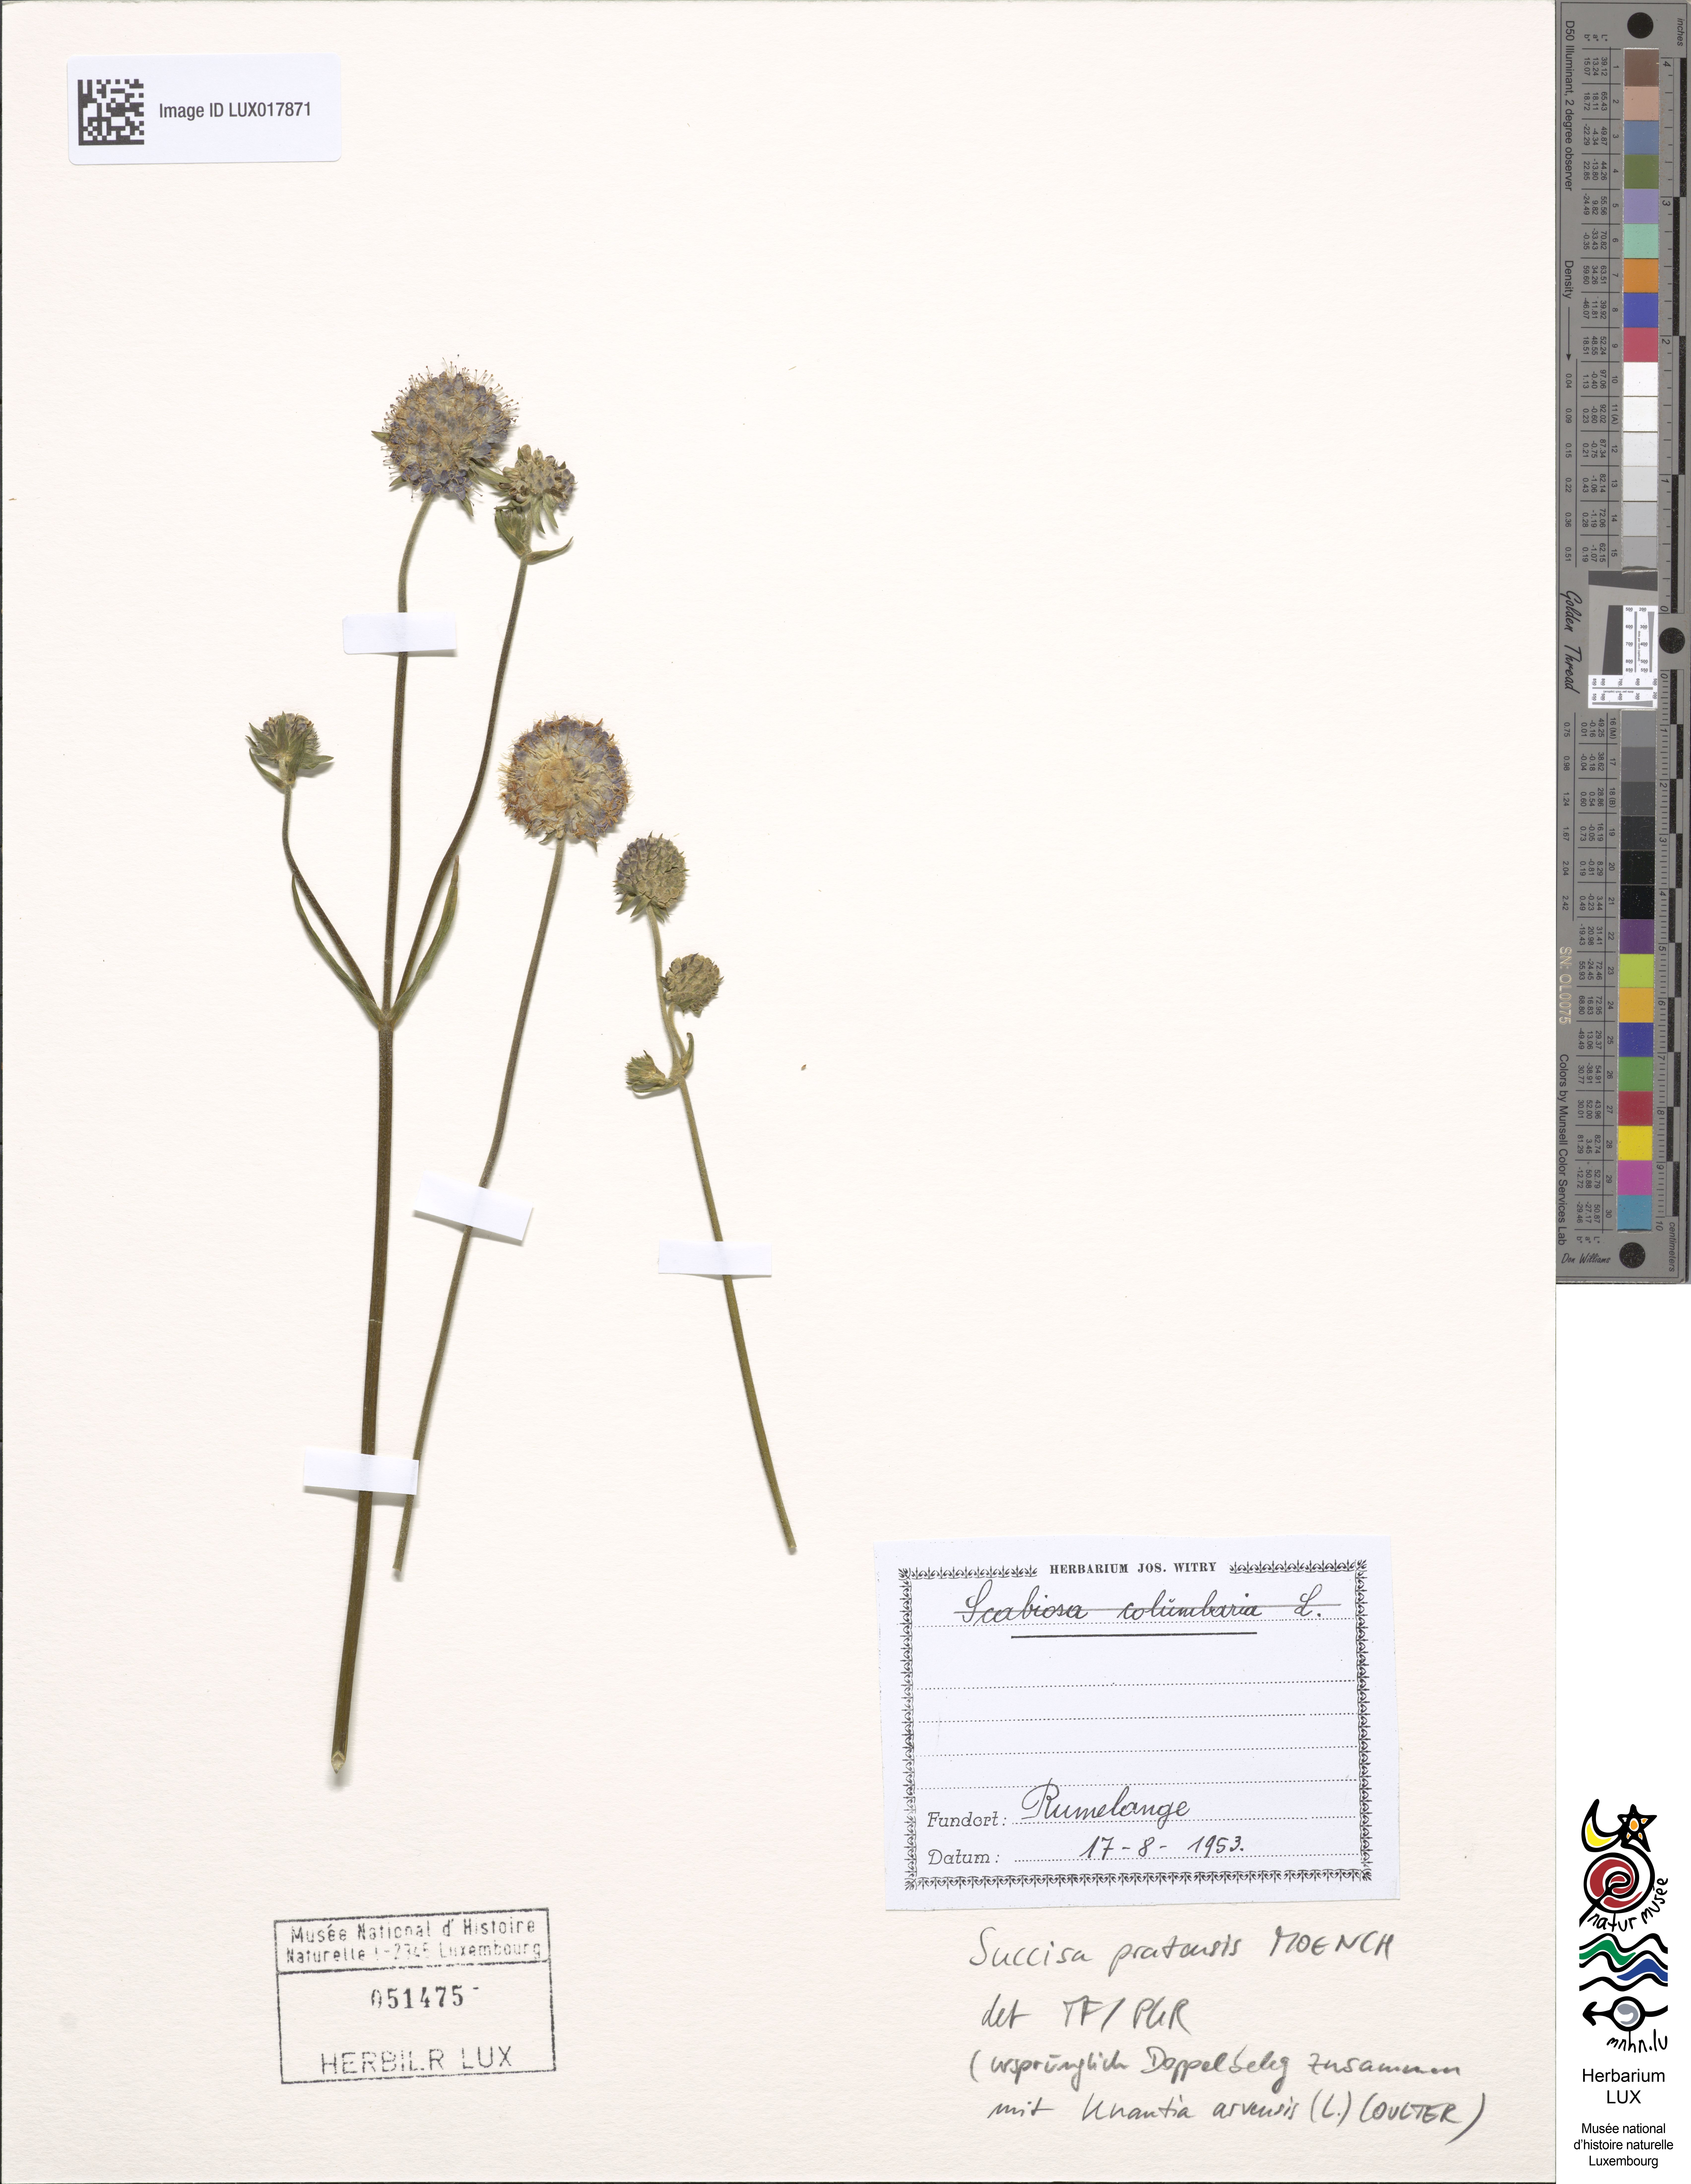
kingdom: Plantae
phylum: Tracheophyta
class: Magnoliopsida
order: Dipsacales
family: Caprifoliaceae
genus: Succisa
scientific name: Succisa pratensis
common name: Devil's-bit
